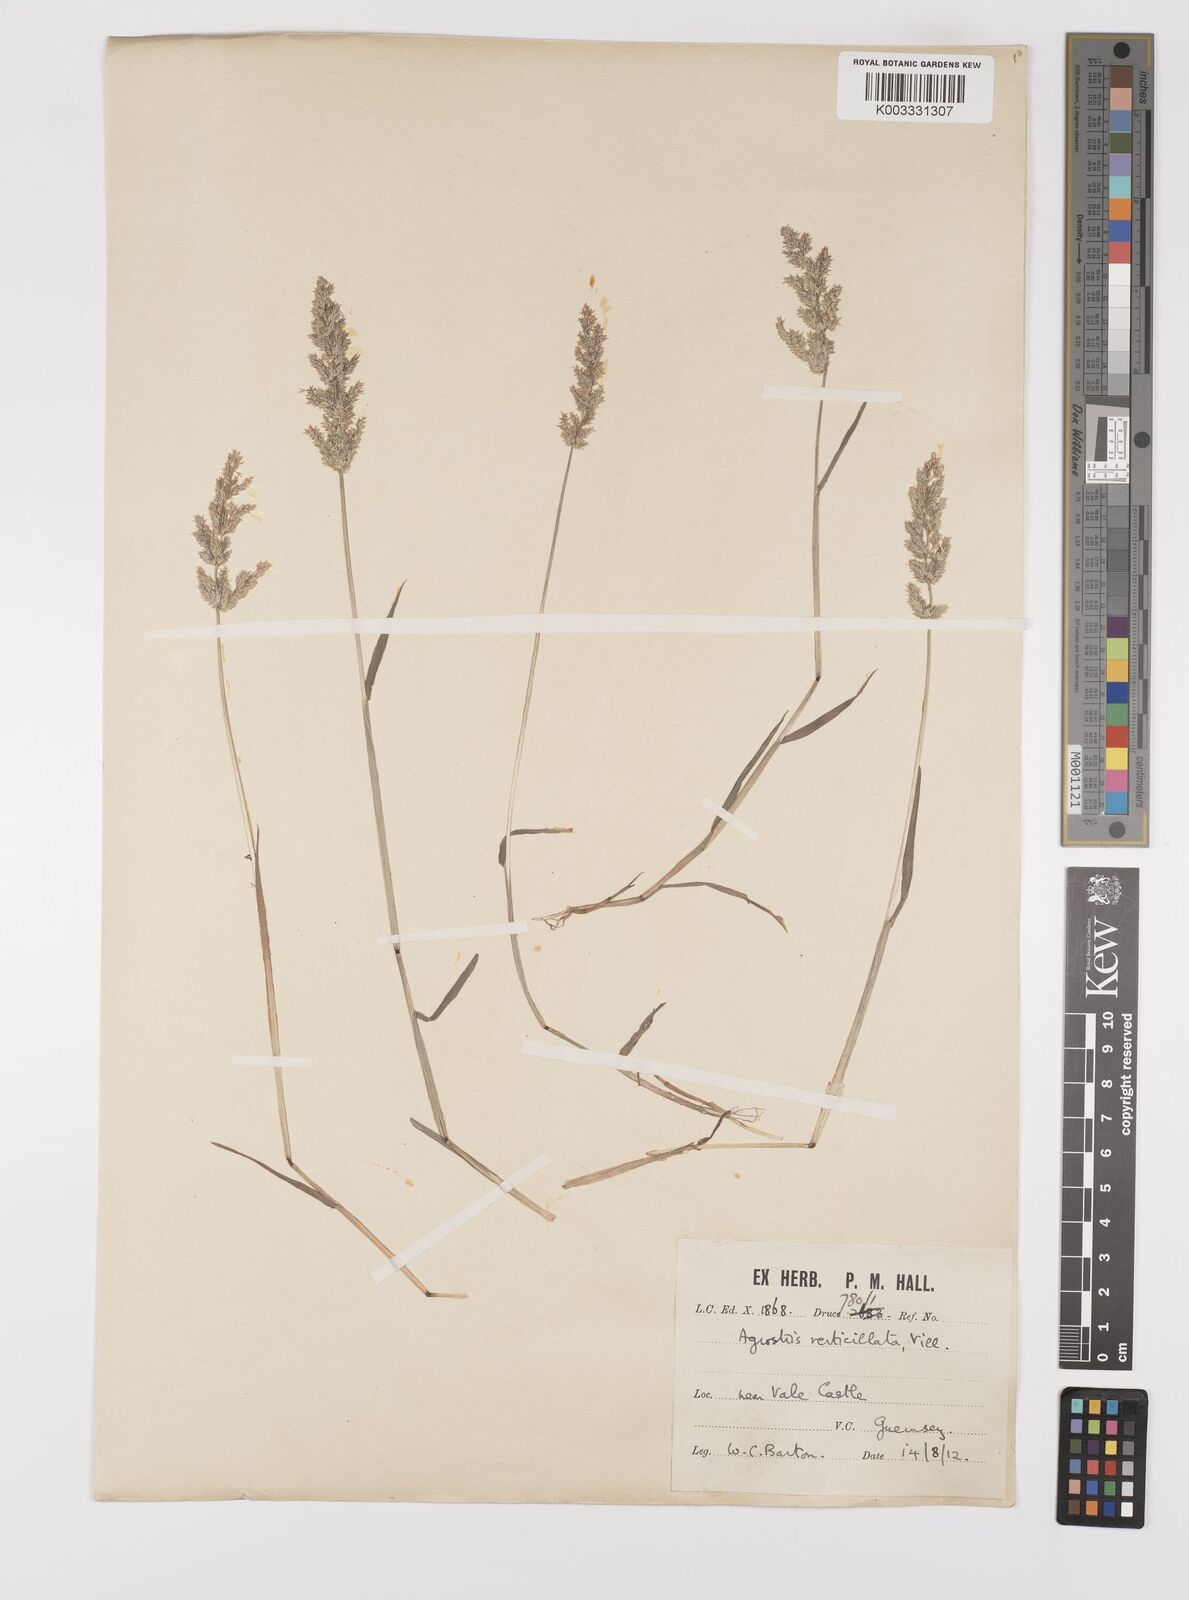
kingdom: Plantae
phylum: Tracheophyta
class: Liliopsida
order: Poales
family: Poaceae
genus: Polypogon
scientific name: Polypogon viridis
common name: Water bent
